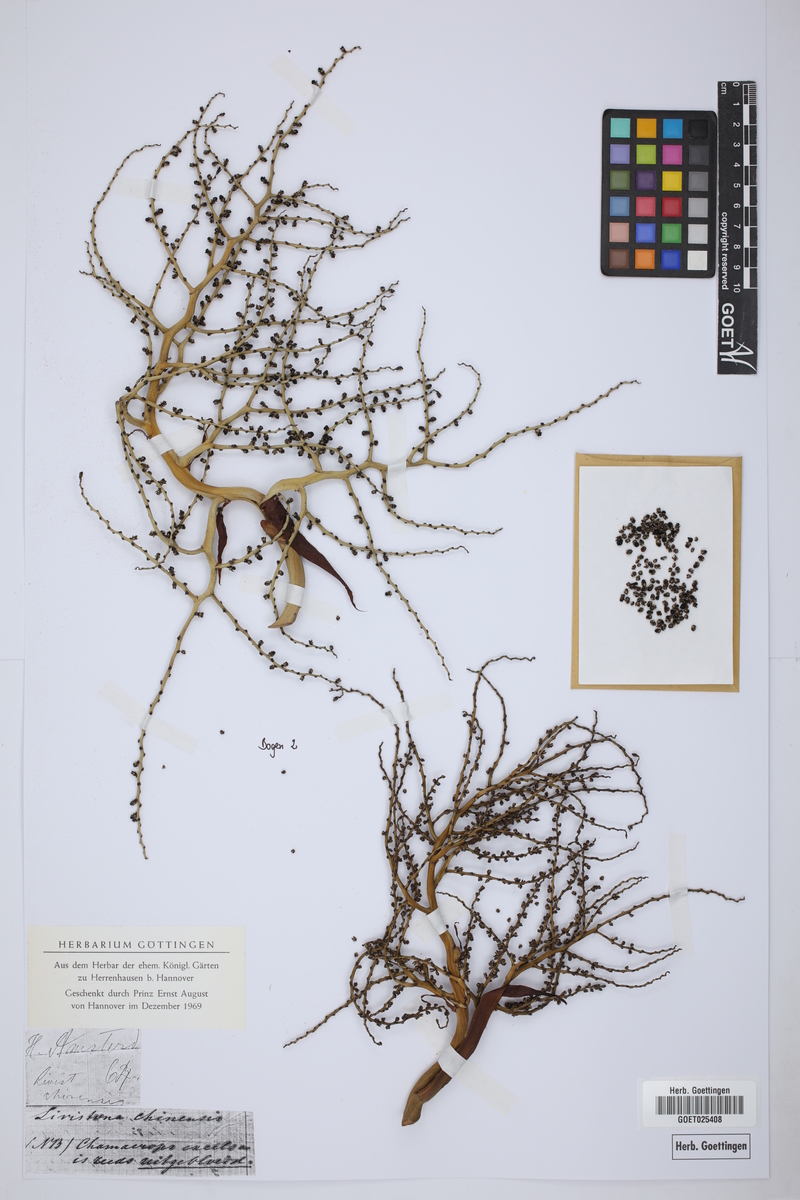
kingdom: Plantae
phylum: Tracheophyta
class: Liliopsida
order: Arecales
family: Arecaceae
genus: Livistona
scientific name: Livistona chinensis
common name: Fountain palm
